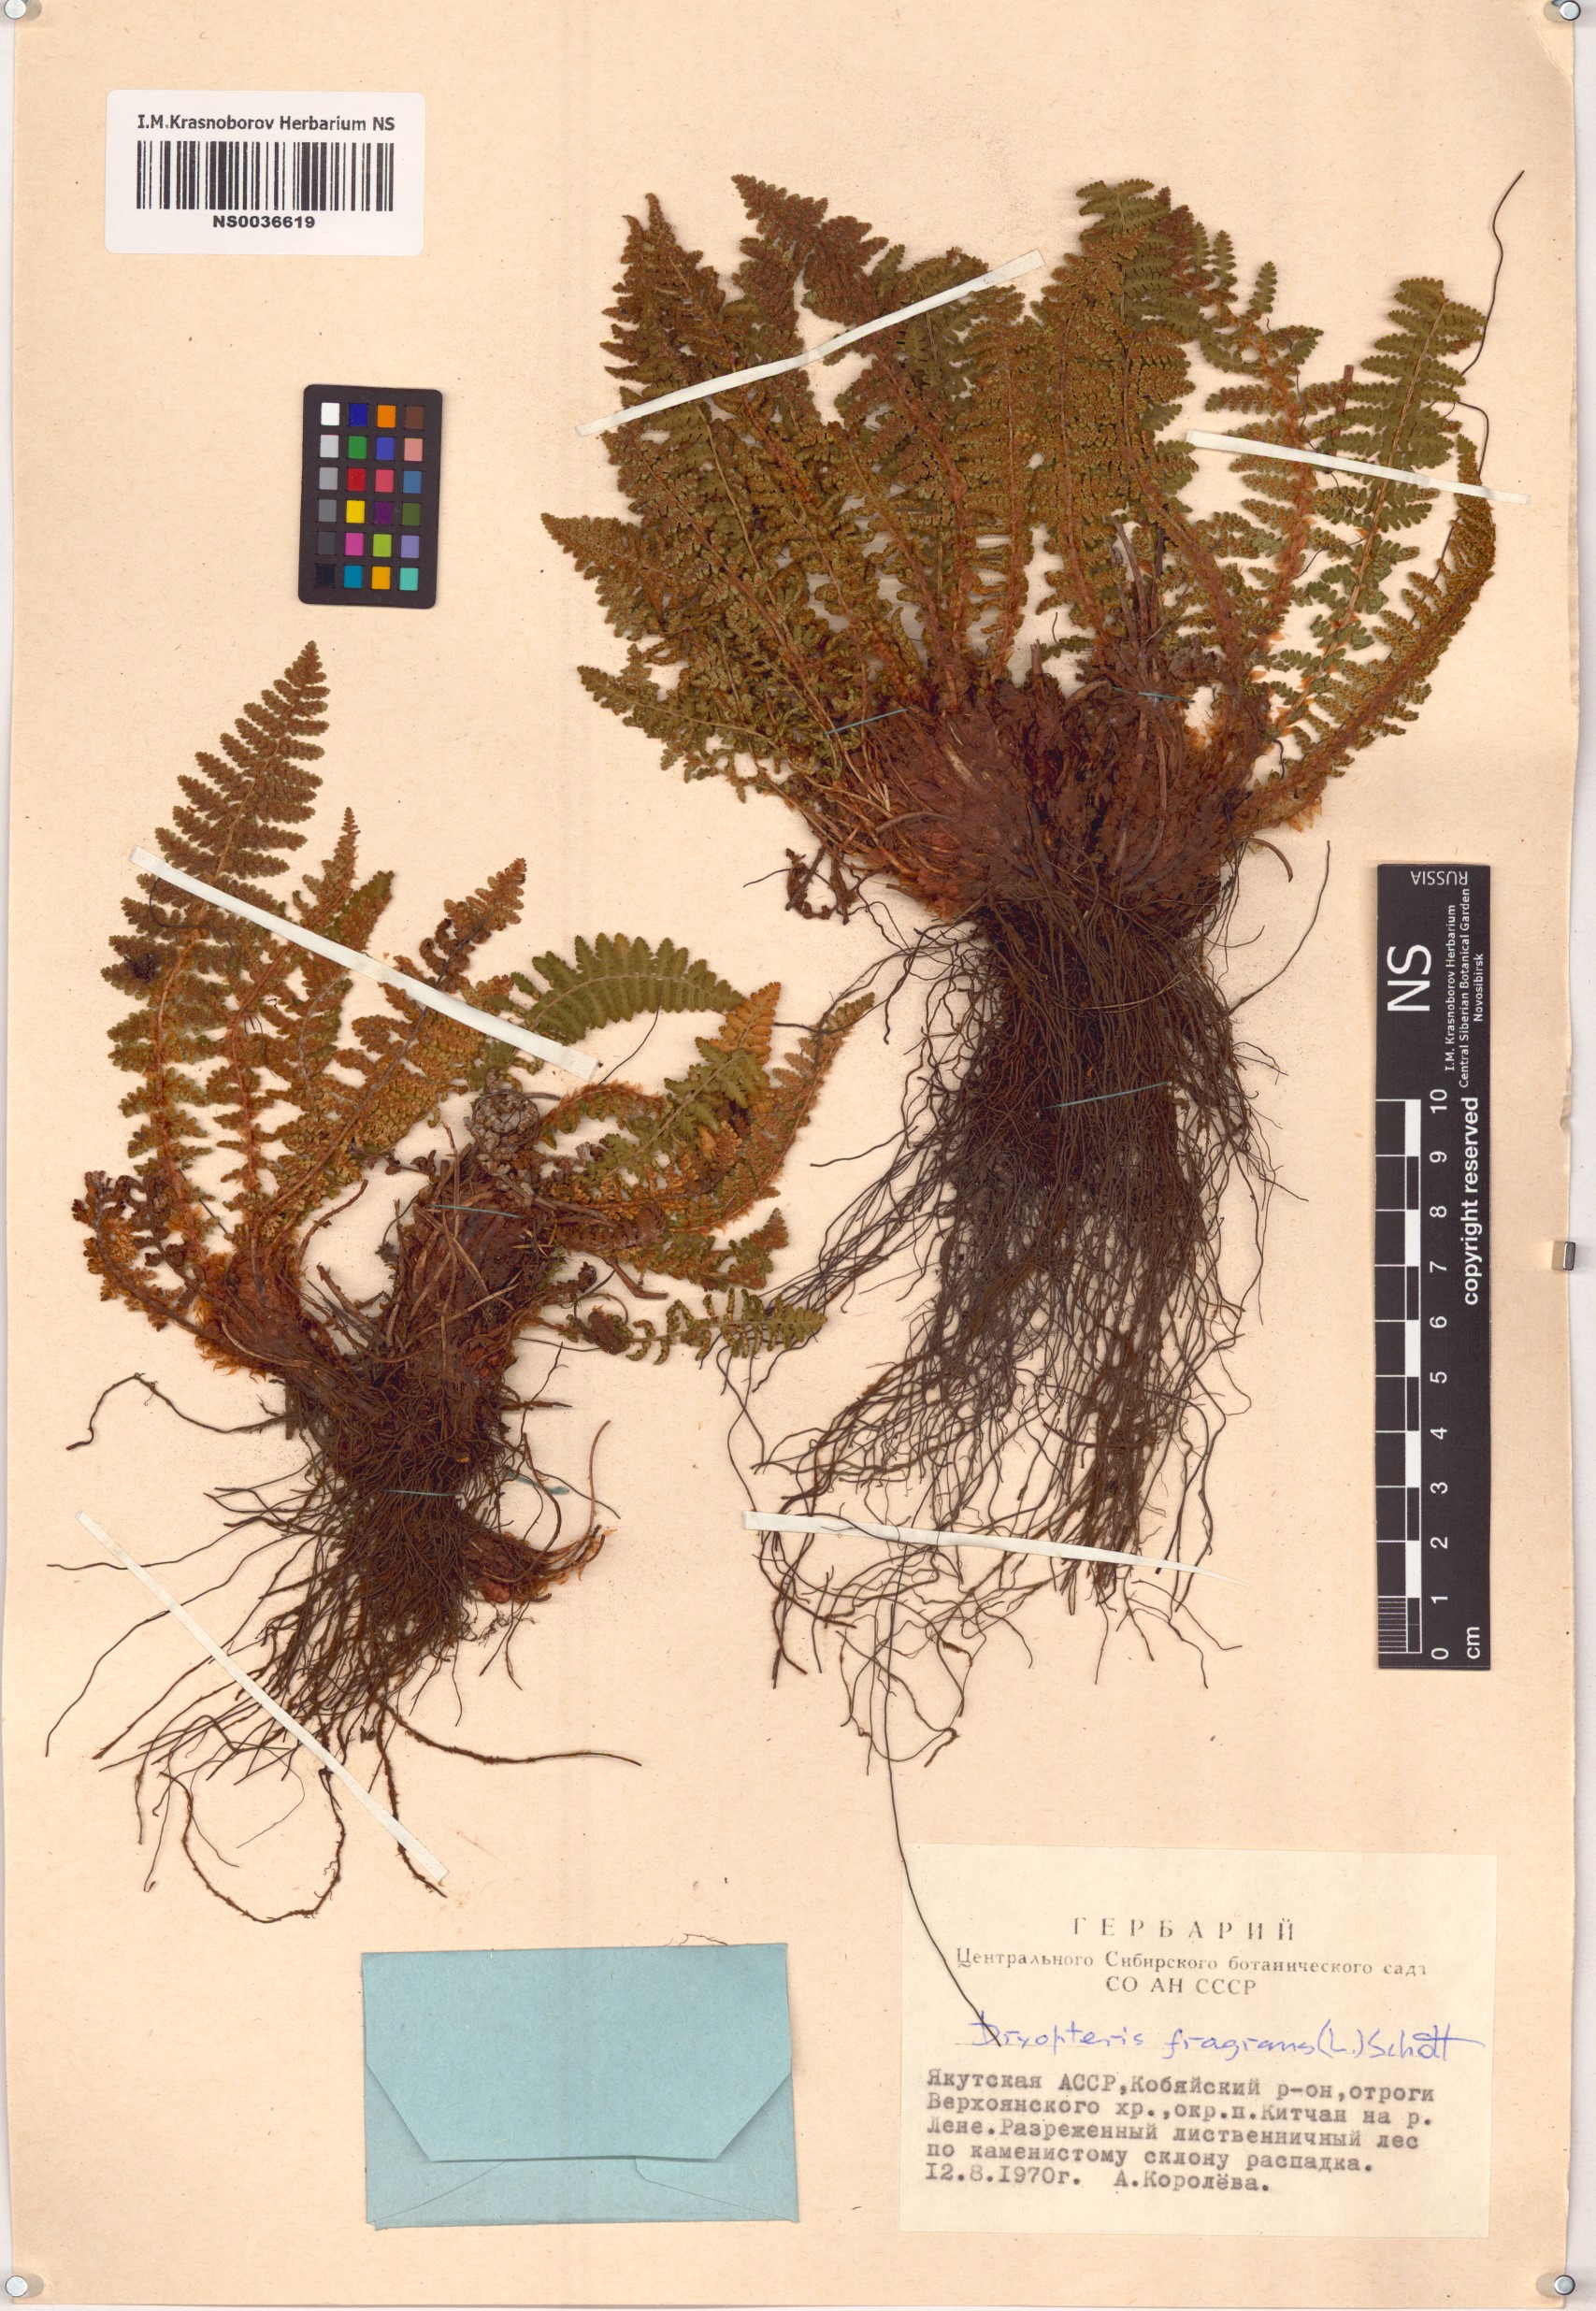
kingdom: Plantae
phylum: Tracheophyta
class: Polypodiopsida
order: Polypodiales
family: Dryopteridaceae
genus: Dryopteris
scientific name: Dryopteris fragrans
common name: Fragrant wood fern
